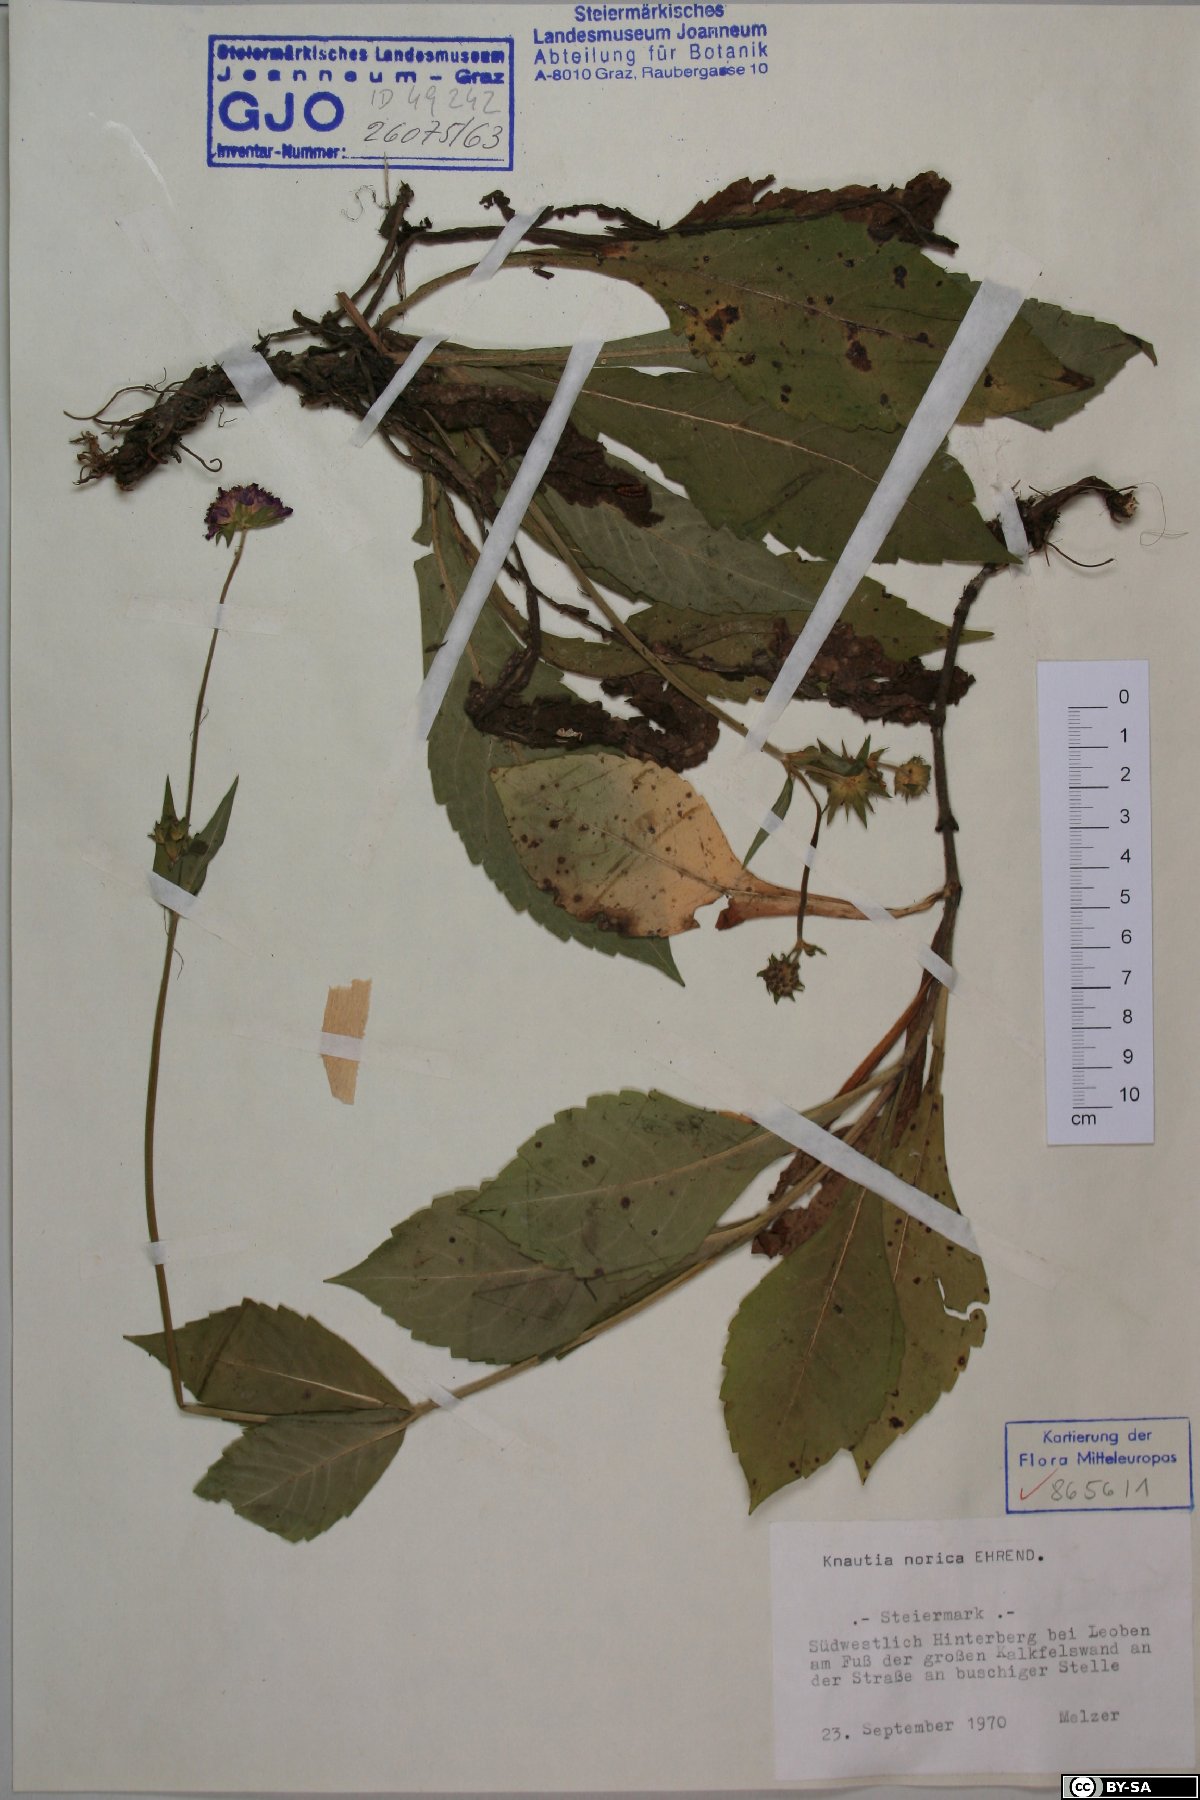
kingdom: Plantae
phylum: Tracheophyta
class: Magnoliopsida
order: Dipsacales
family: Caprifoliaceae
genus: Knautia
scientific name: Knautia norica
